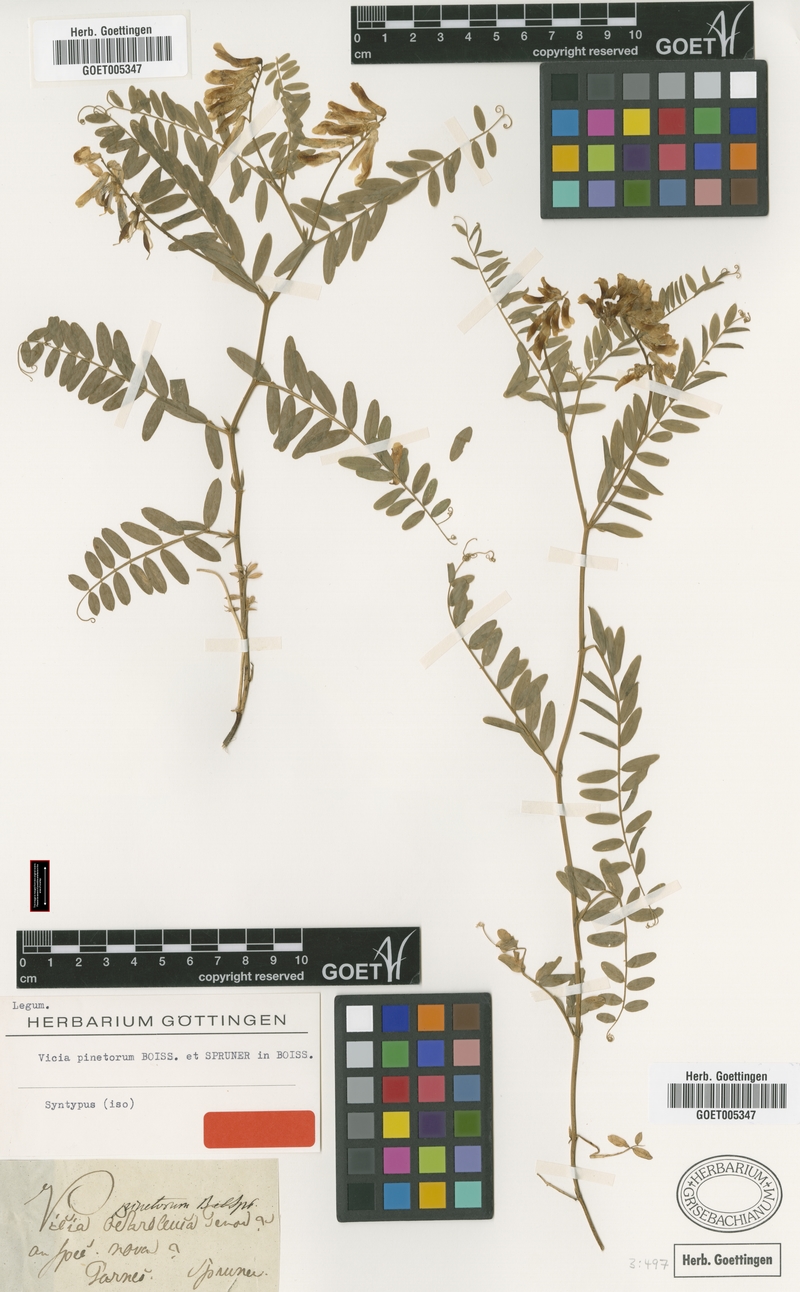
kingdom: Plantae
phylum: Tracheophyta
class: Magnoliopsida
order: Fabales
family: Fabaceae
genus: Vicia
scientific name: Vicia pinetorum
